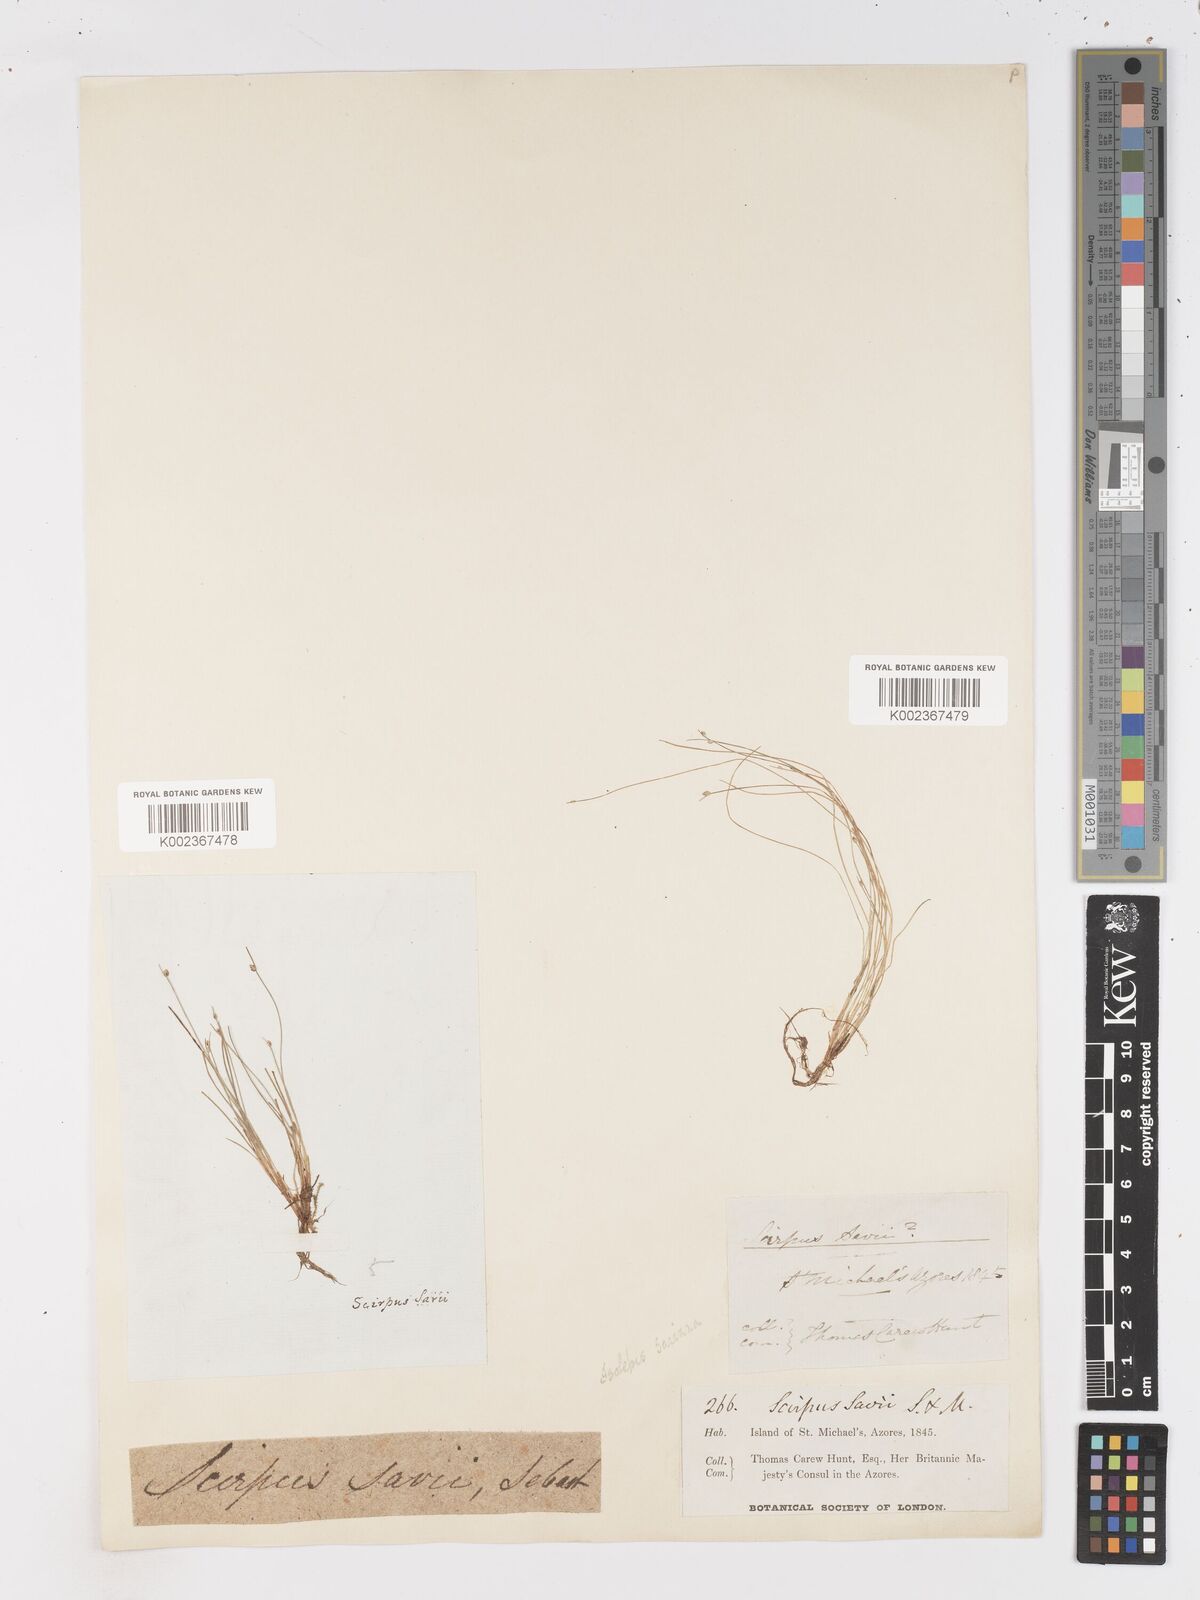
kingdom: Plantae
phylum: Tracheophyta
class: Liliopsida
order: Poales
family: Cyperaceae
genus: Isolepis
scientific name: Isolepis cernua
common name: Slender club-rush
